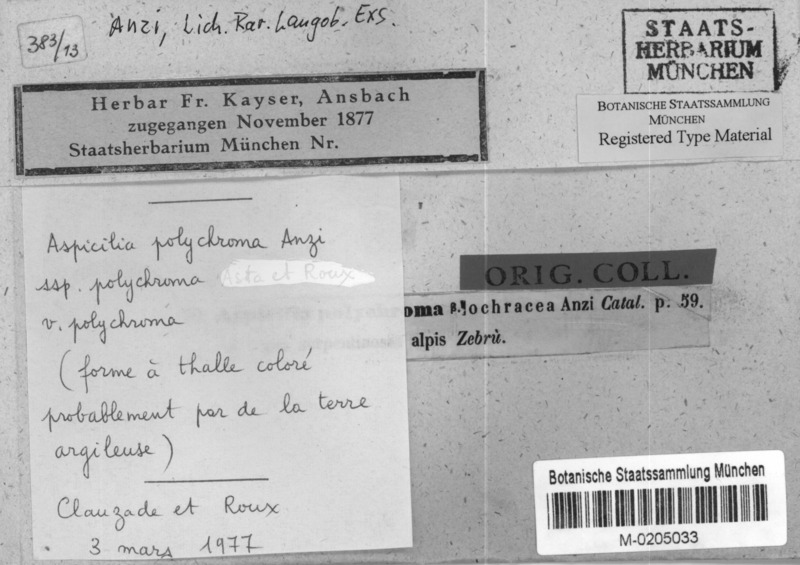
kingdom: Fungi
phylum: Ascomycota
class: Lecanoromycetes
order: Pertusariales
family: Megasporaceae
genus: Aspicilia
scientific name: Aspicilia polychroma
